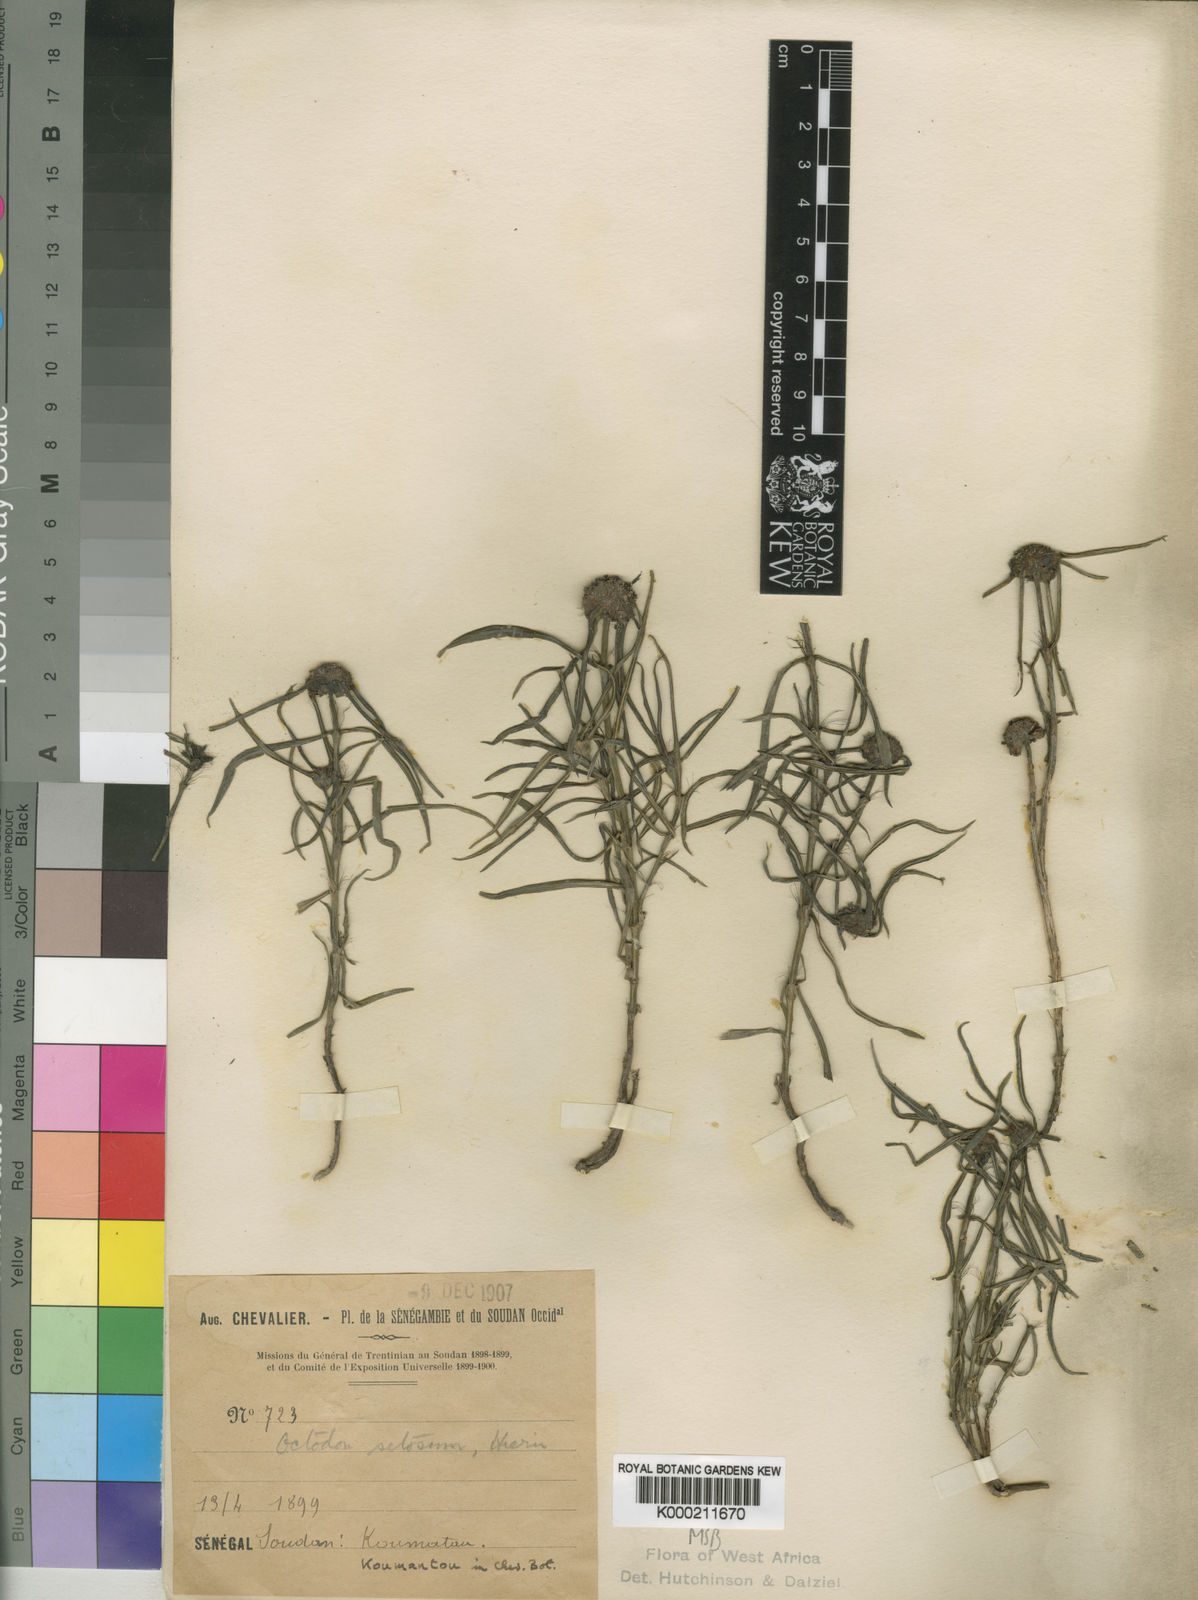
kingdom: Plantae
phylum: Tracheophyta
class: Magnoliopsida
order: Gentianales
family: Rubiaceae
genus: Spermacoce
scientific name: Spermacoce octodon
